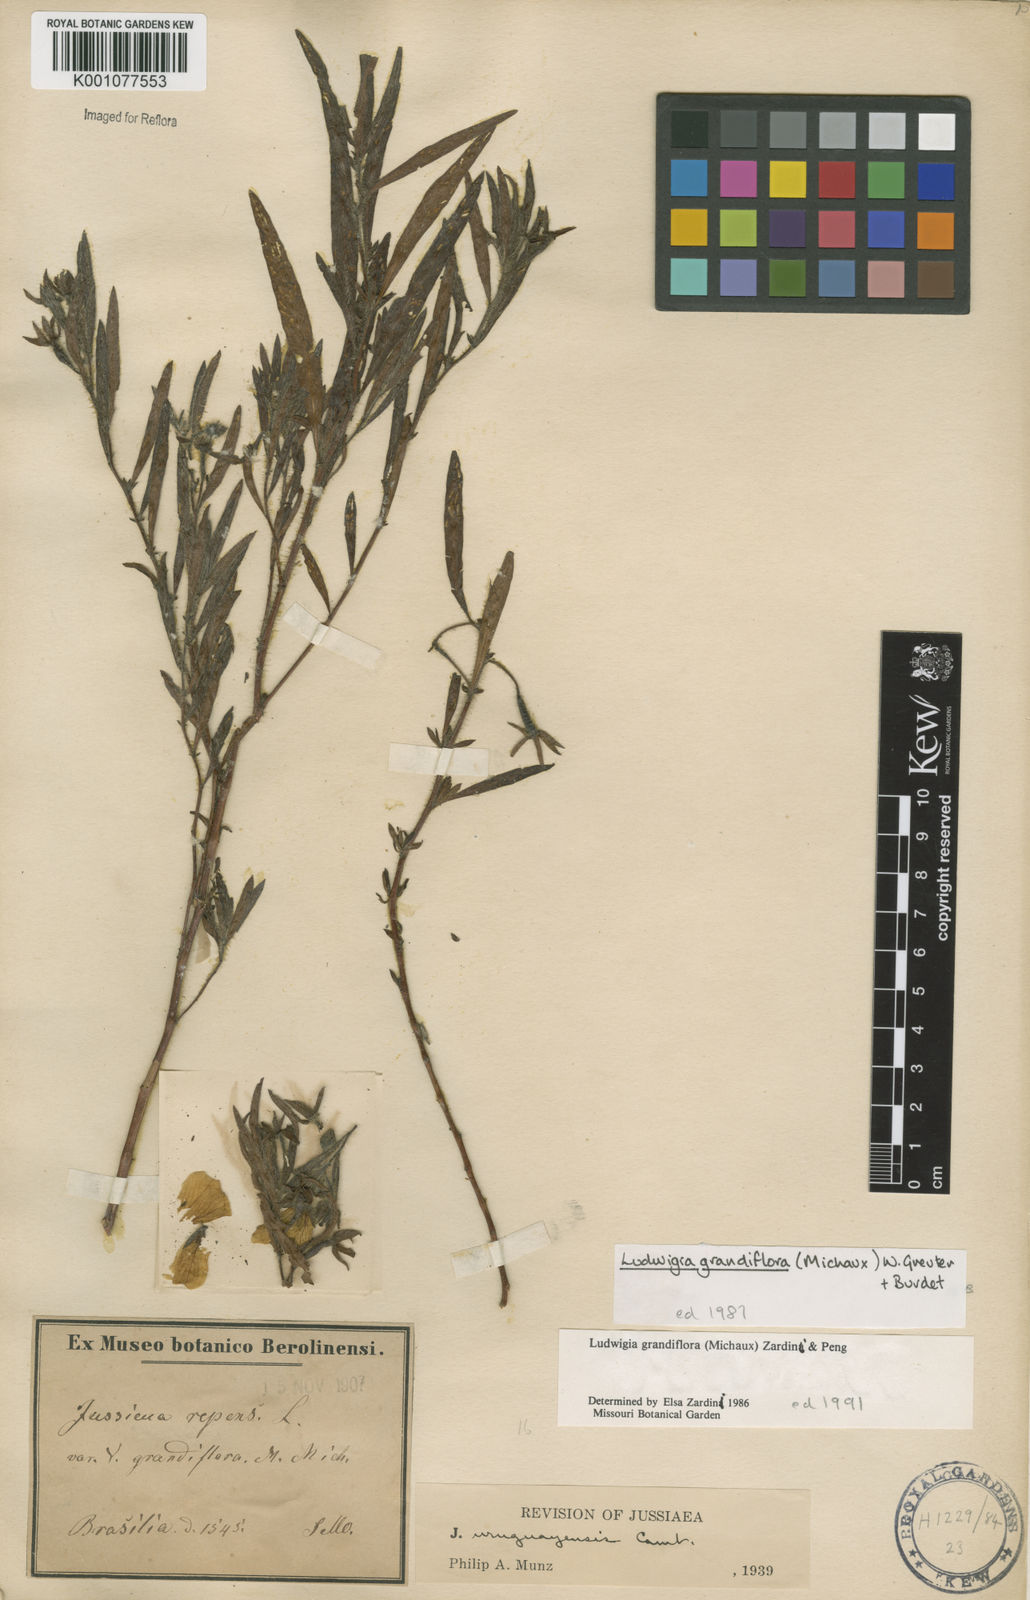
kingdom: Plantae
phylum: Tracheophyta
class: Magnoliopsida
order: Myrtales
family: Onagraceae
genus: Ludwigia
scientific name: Ludwigia grandiflora
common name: Water primrose
